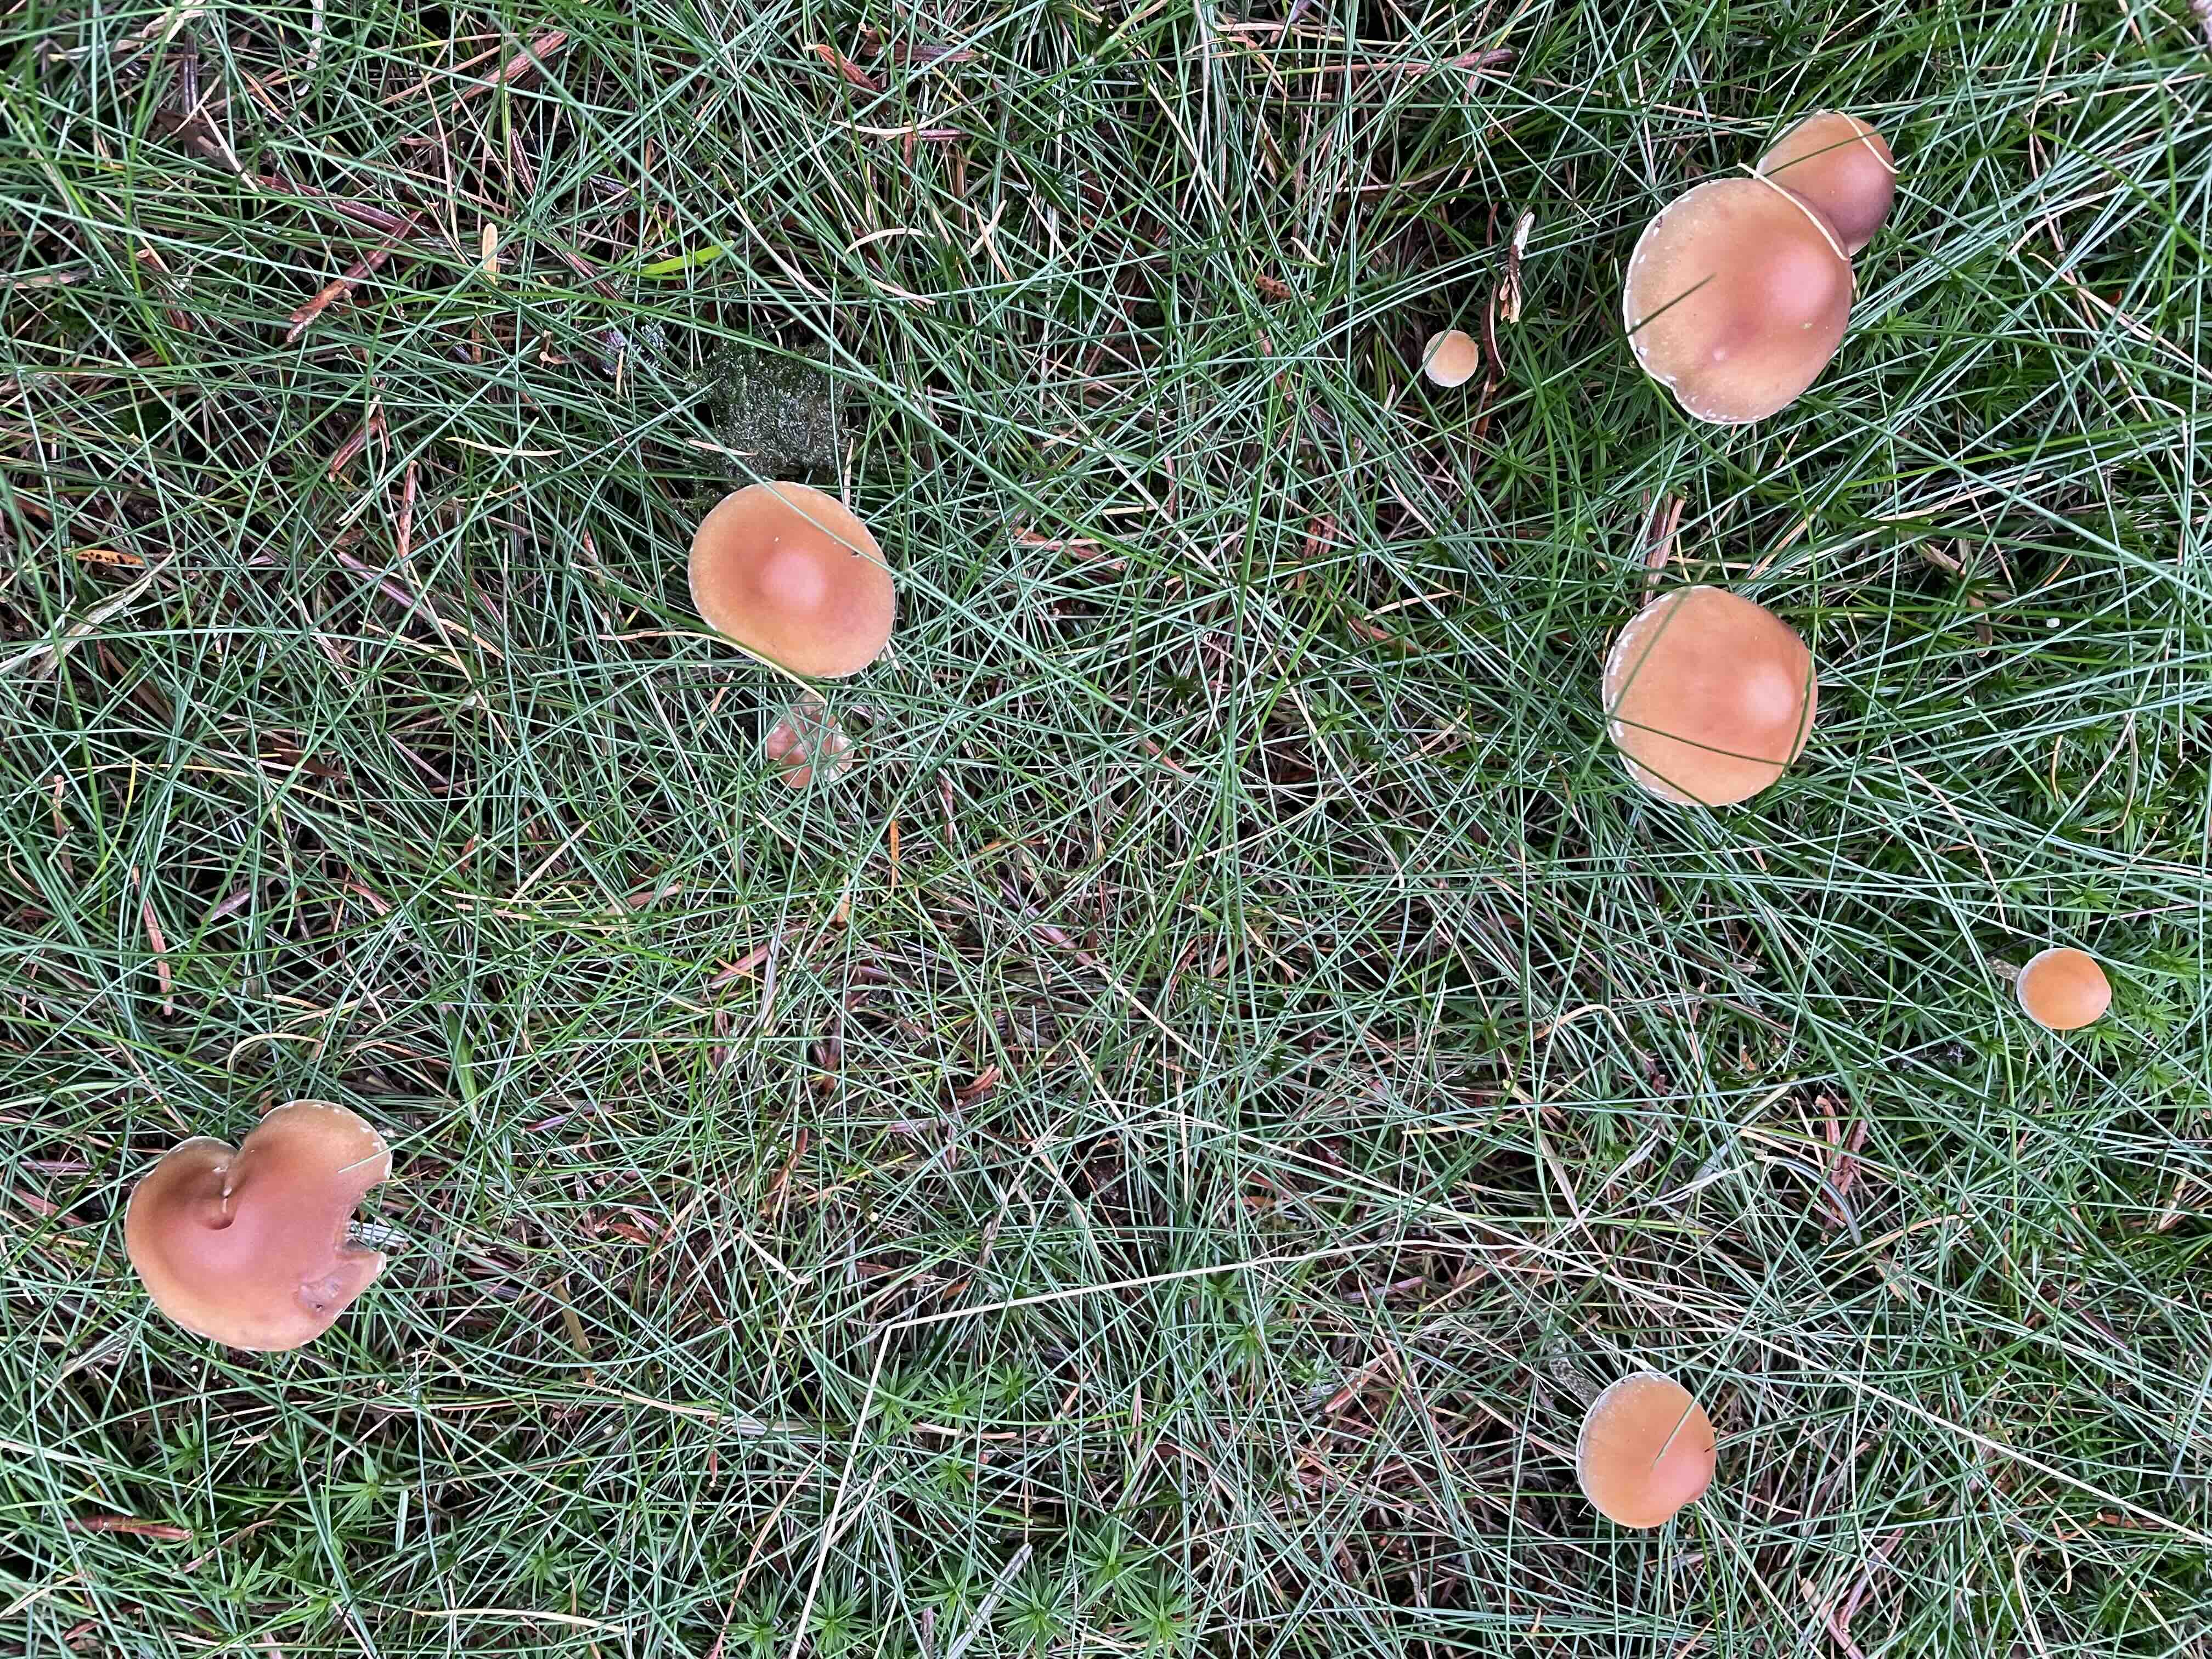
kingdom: Fungi
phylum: Basidiomycota
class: Agaricomycetes
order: Agaricales
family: Strophariaceae
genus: Hypholoma
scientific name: Hypholoma marginatum
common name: enlig svovlhat
